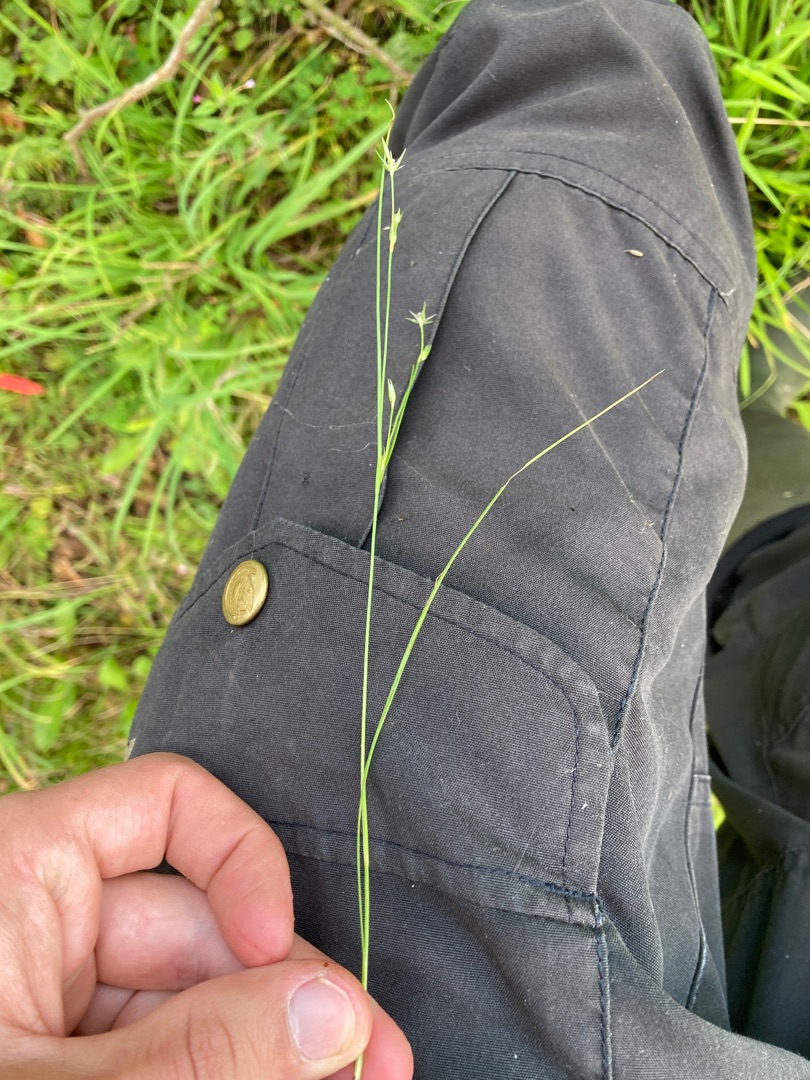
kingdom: Plantae
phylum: Tracheophyta
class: Liliopsida
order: Poales
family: Juncaceae
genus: Juncus
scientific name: Juncus bufonius
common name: Tudse-siv
